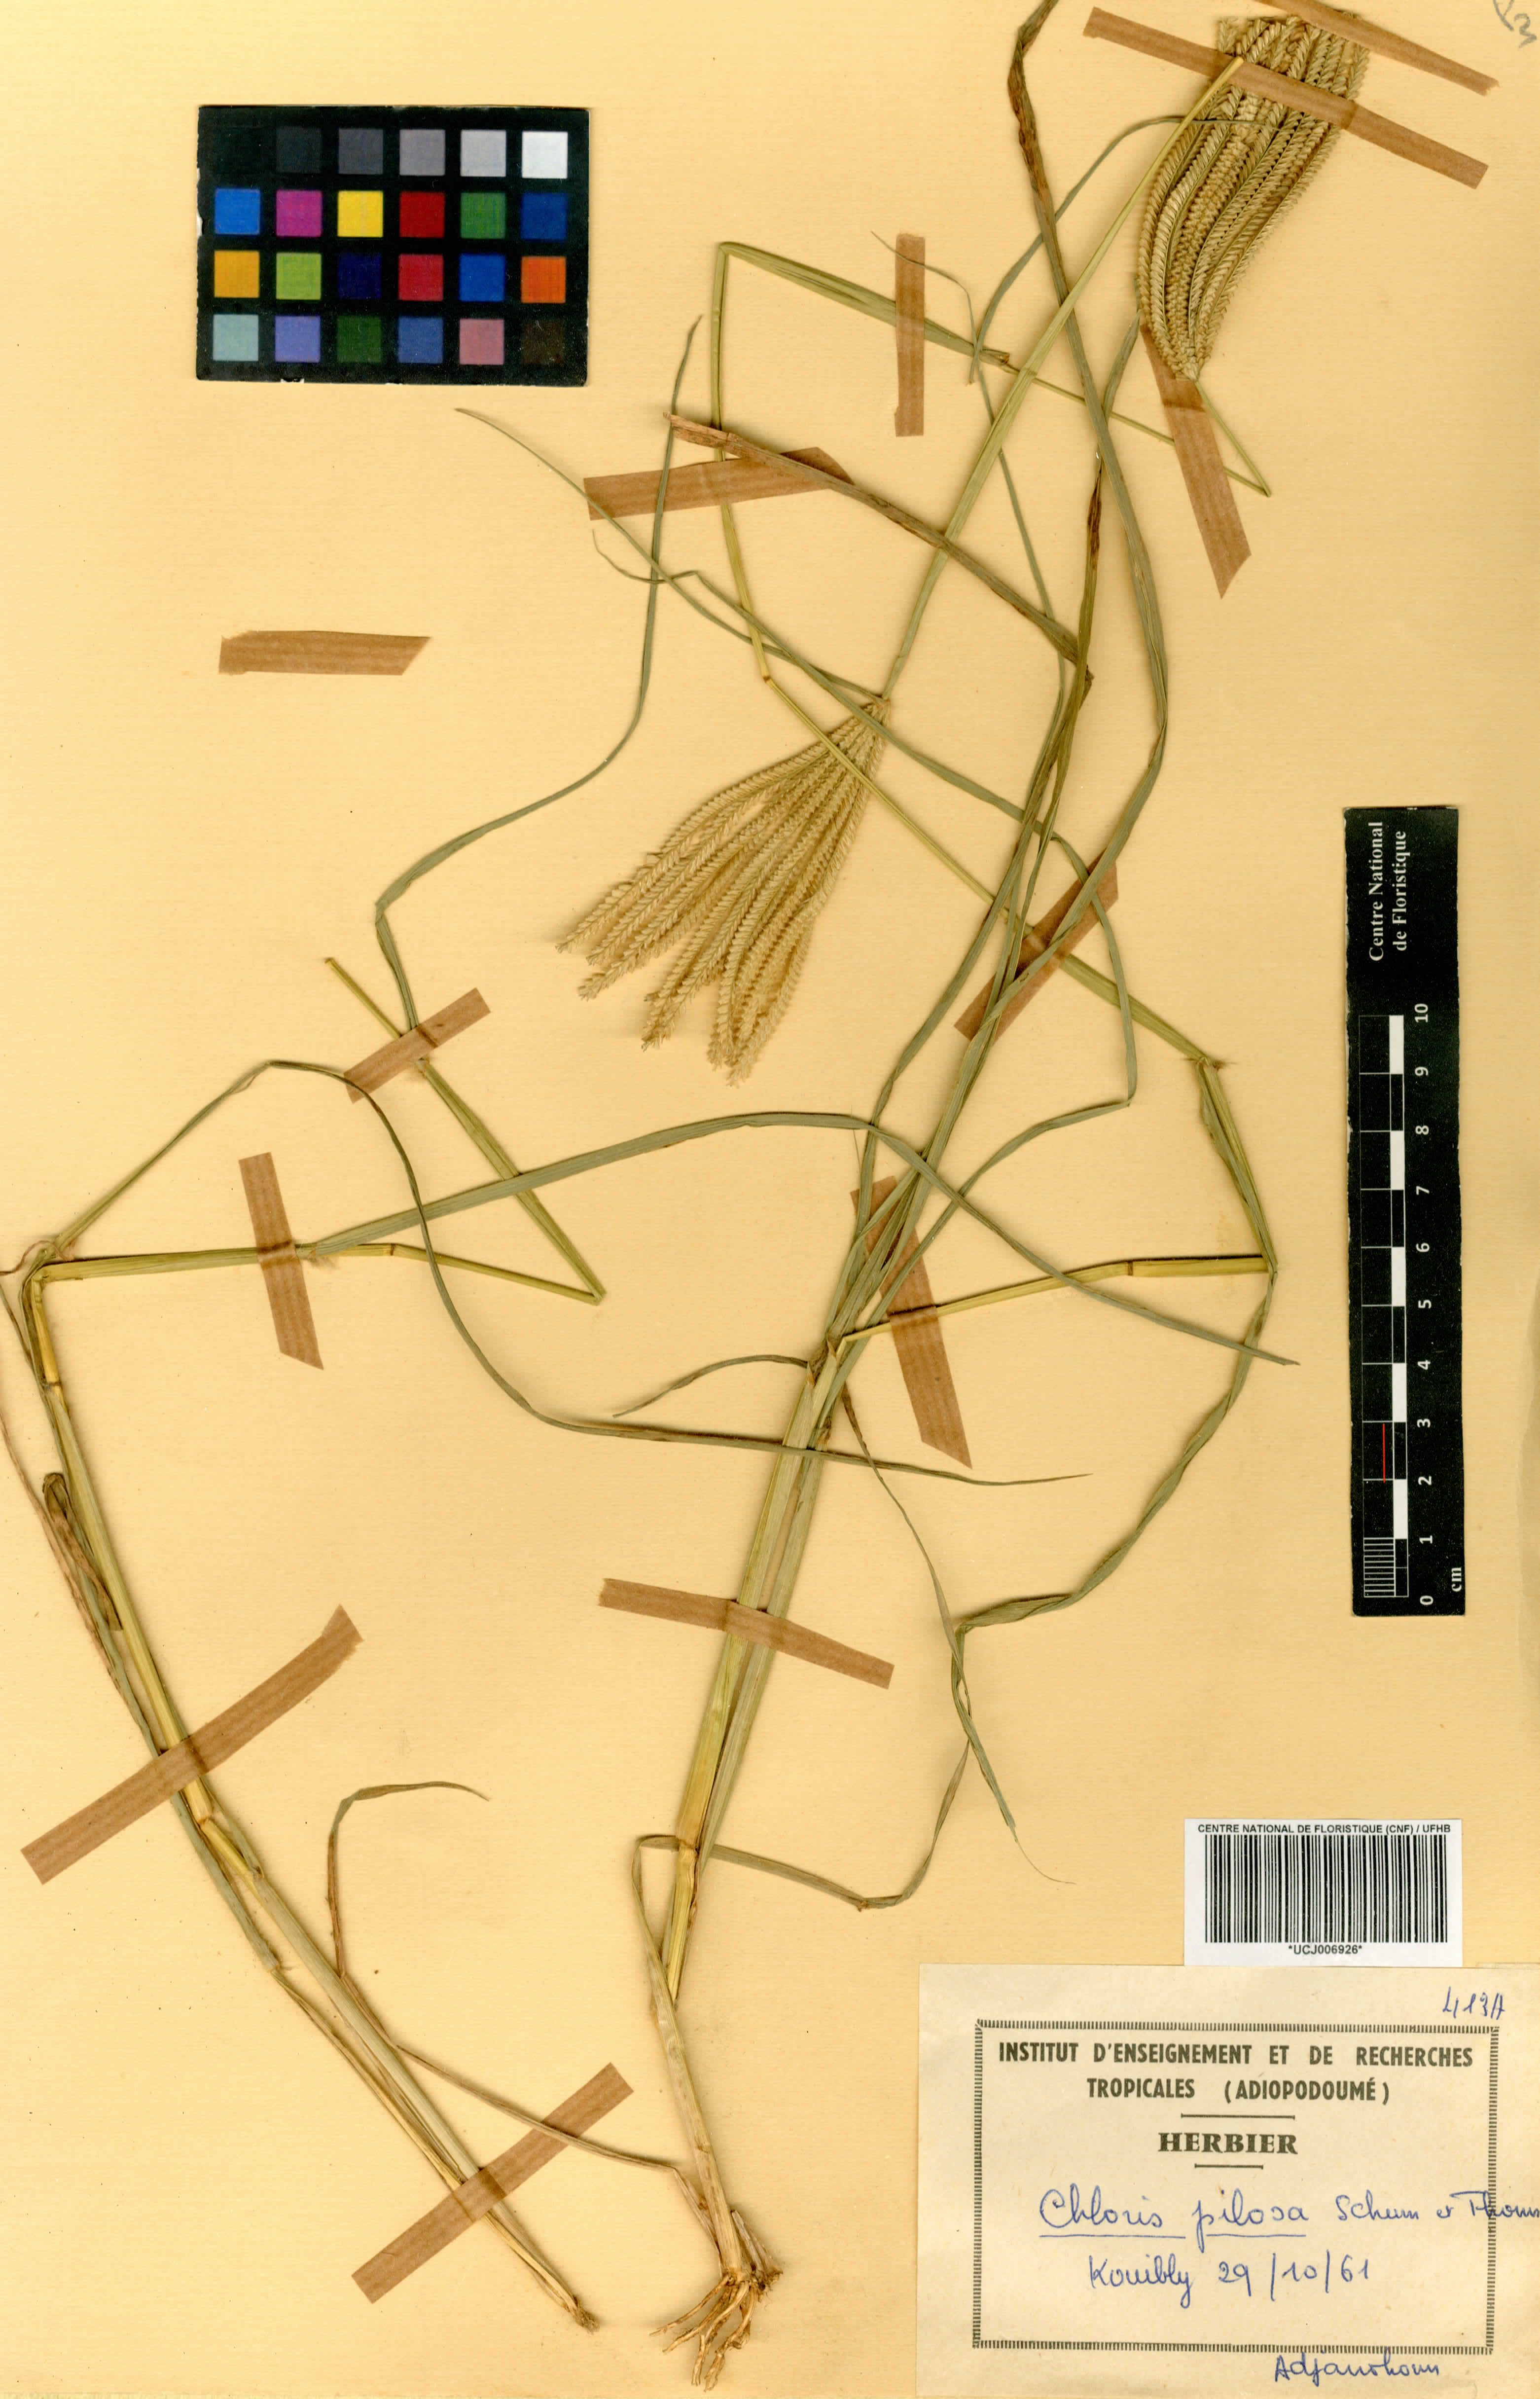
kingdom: Plantae
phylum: Tracheophyta
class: Liliopsida
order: Poales
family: Poaceae
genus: Chloris
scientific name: Chloris pilosa
